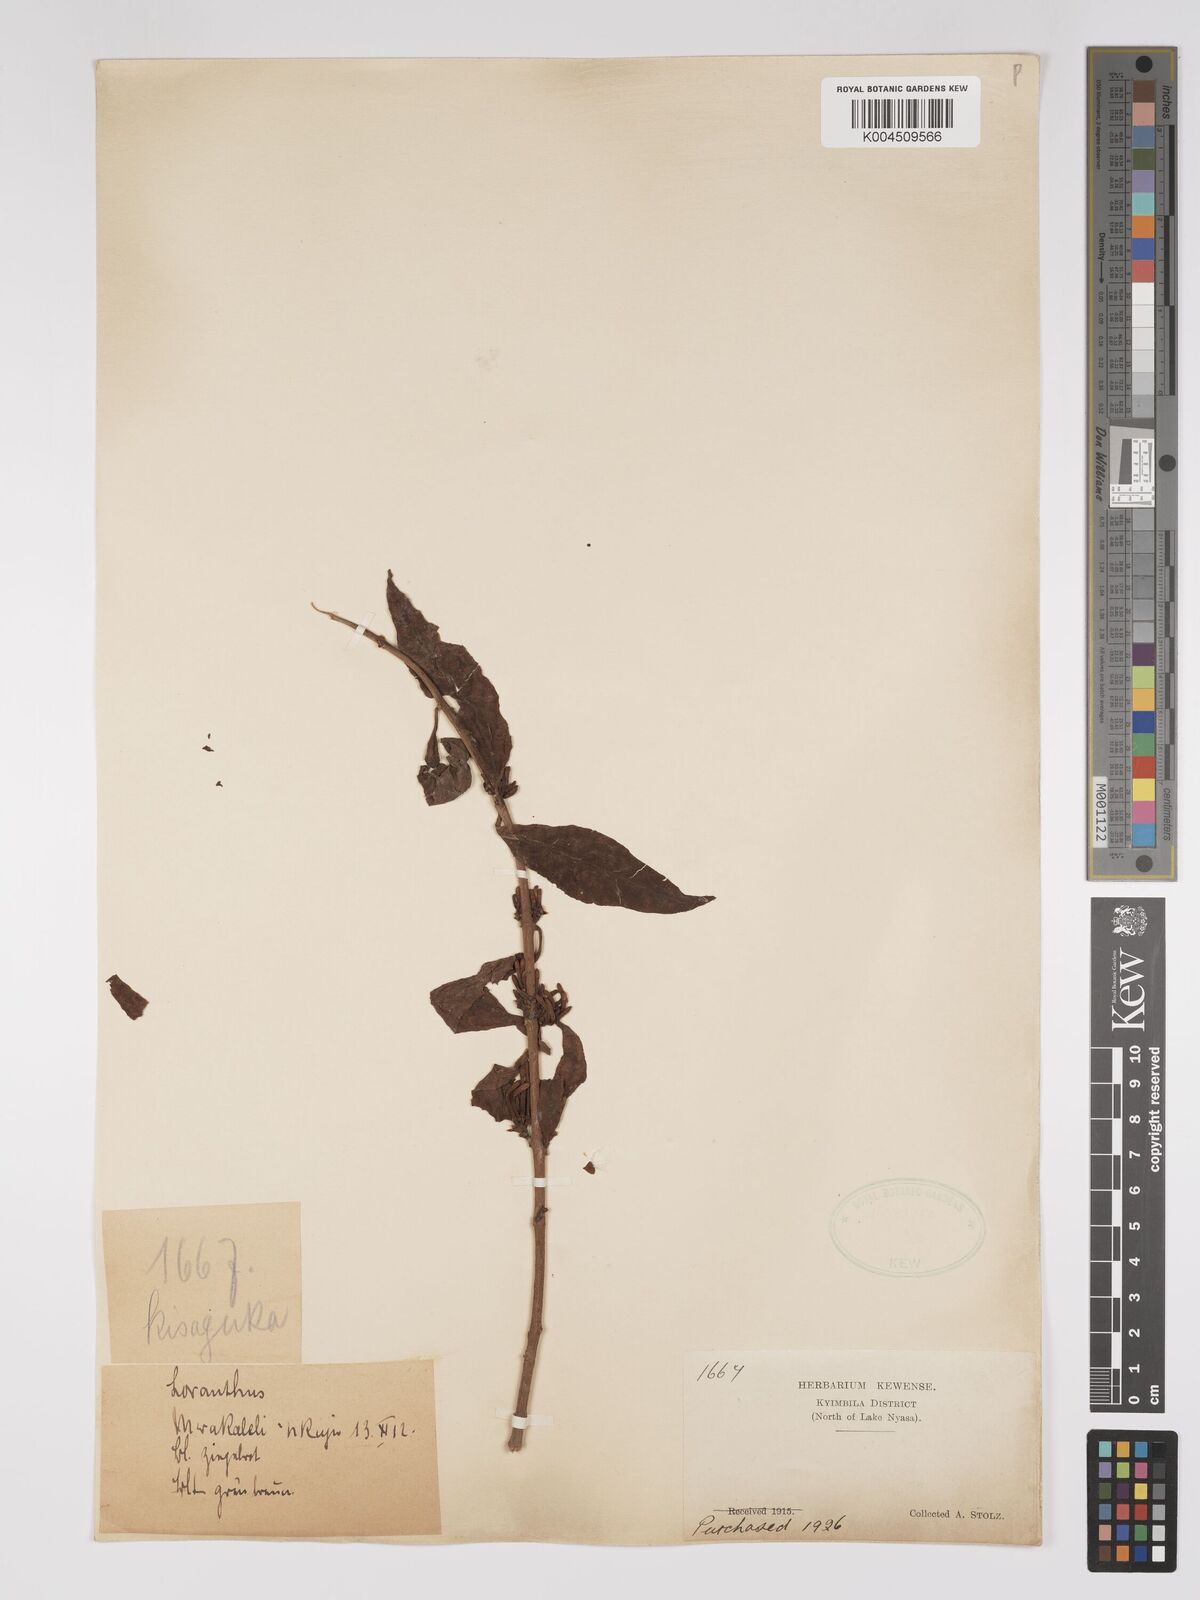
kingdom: Plantae
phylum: Tracheophyta
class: Magnoliopsida
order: Santalales
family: Loranthaceae
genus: Englerina
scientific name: Englerina inaequilatera
